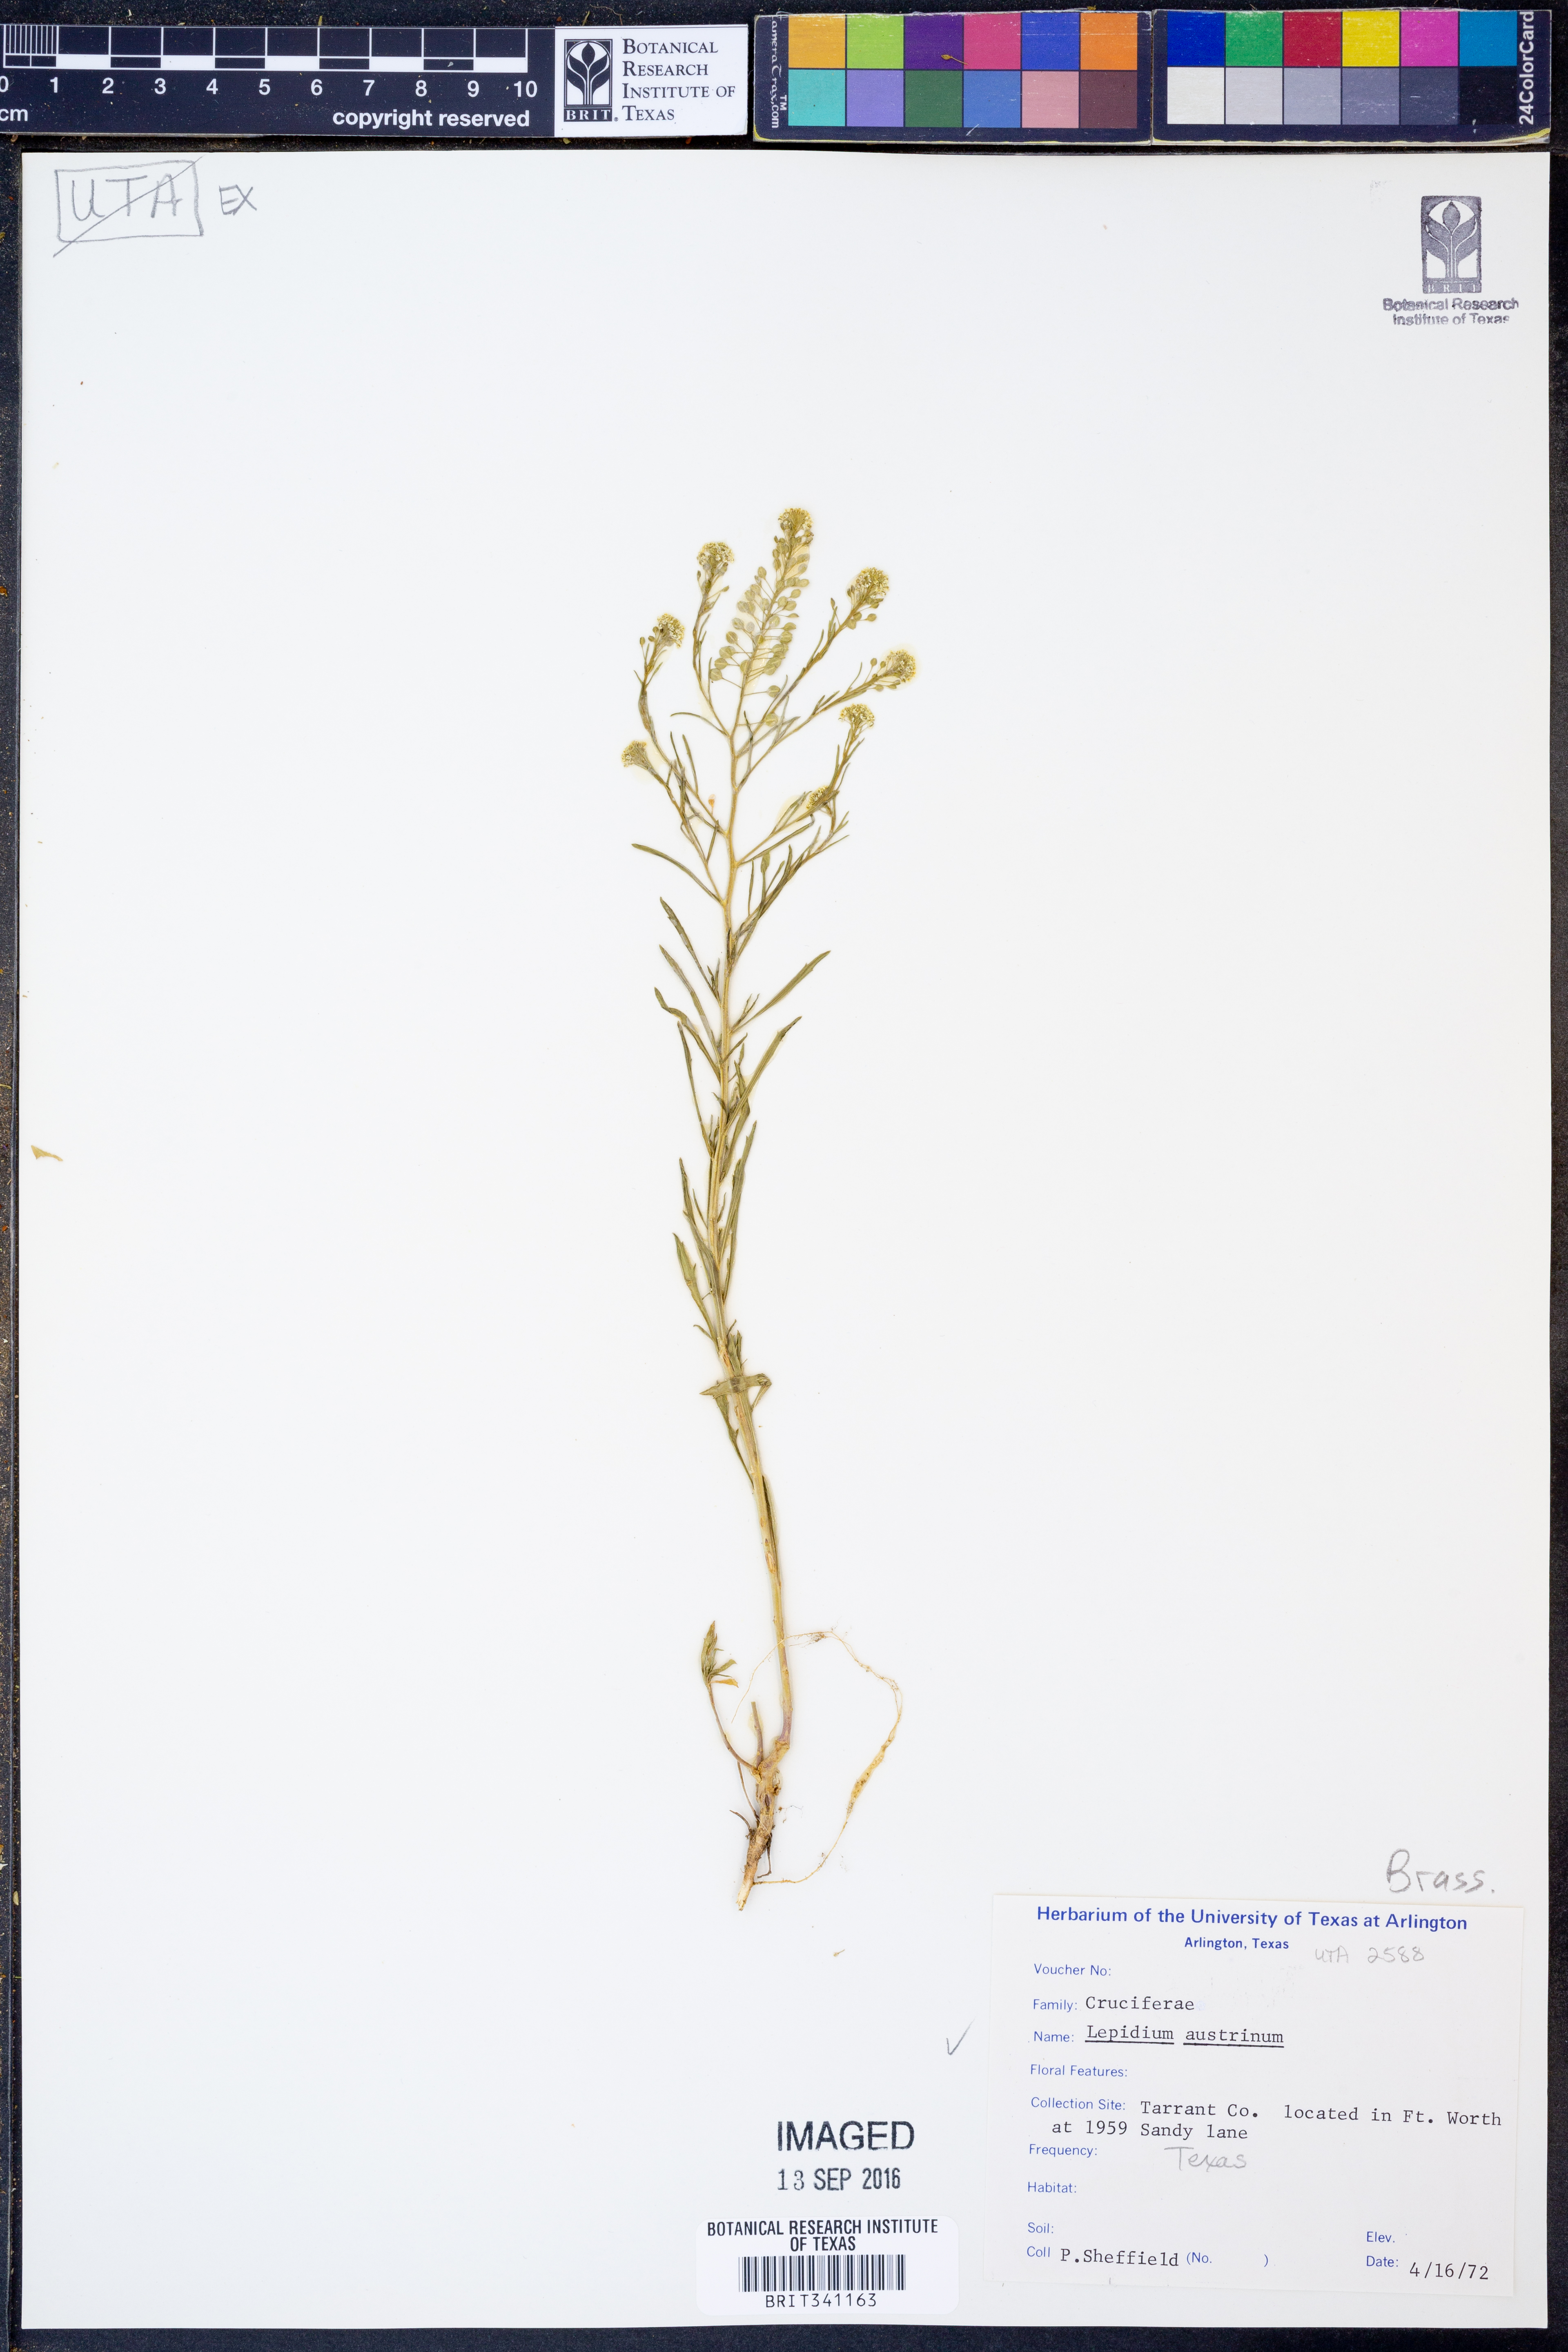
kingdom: Plantae
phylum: Tracheophyta
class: Magnoliopsida
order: Brassicales
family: Brassicaceae
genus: Lepidium
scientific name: Lepidium austrinum
